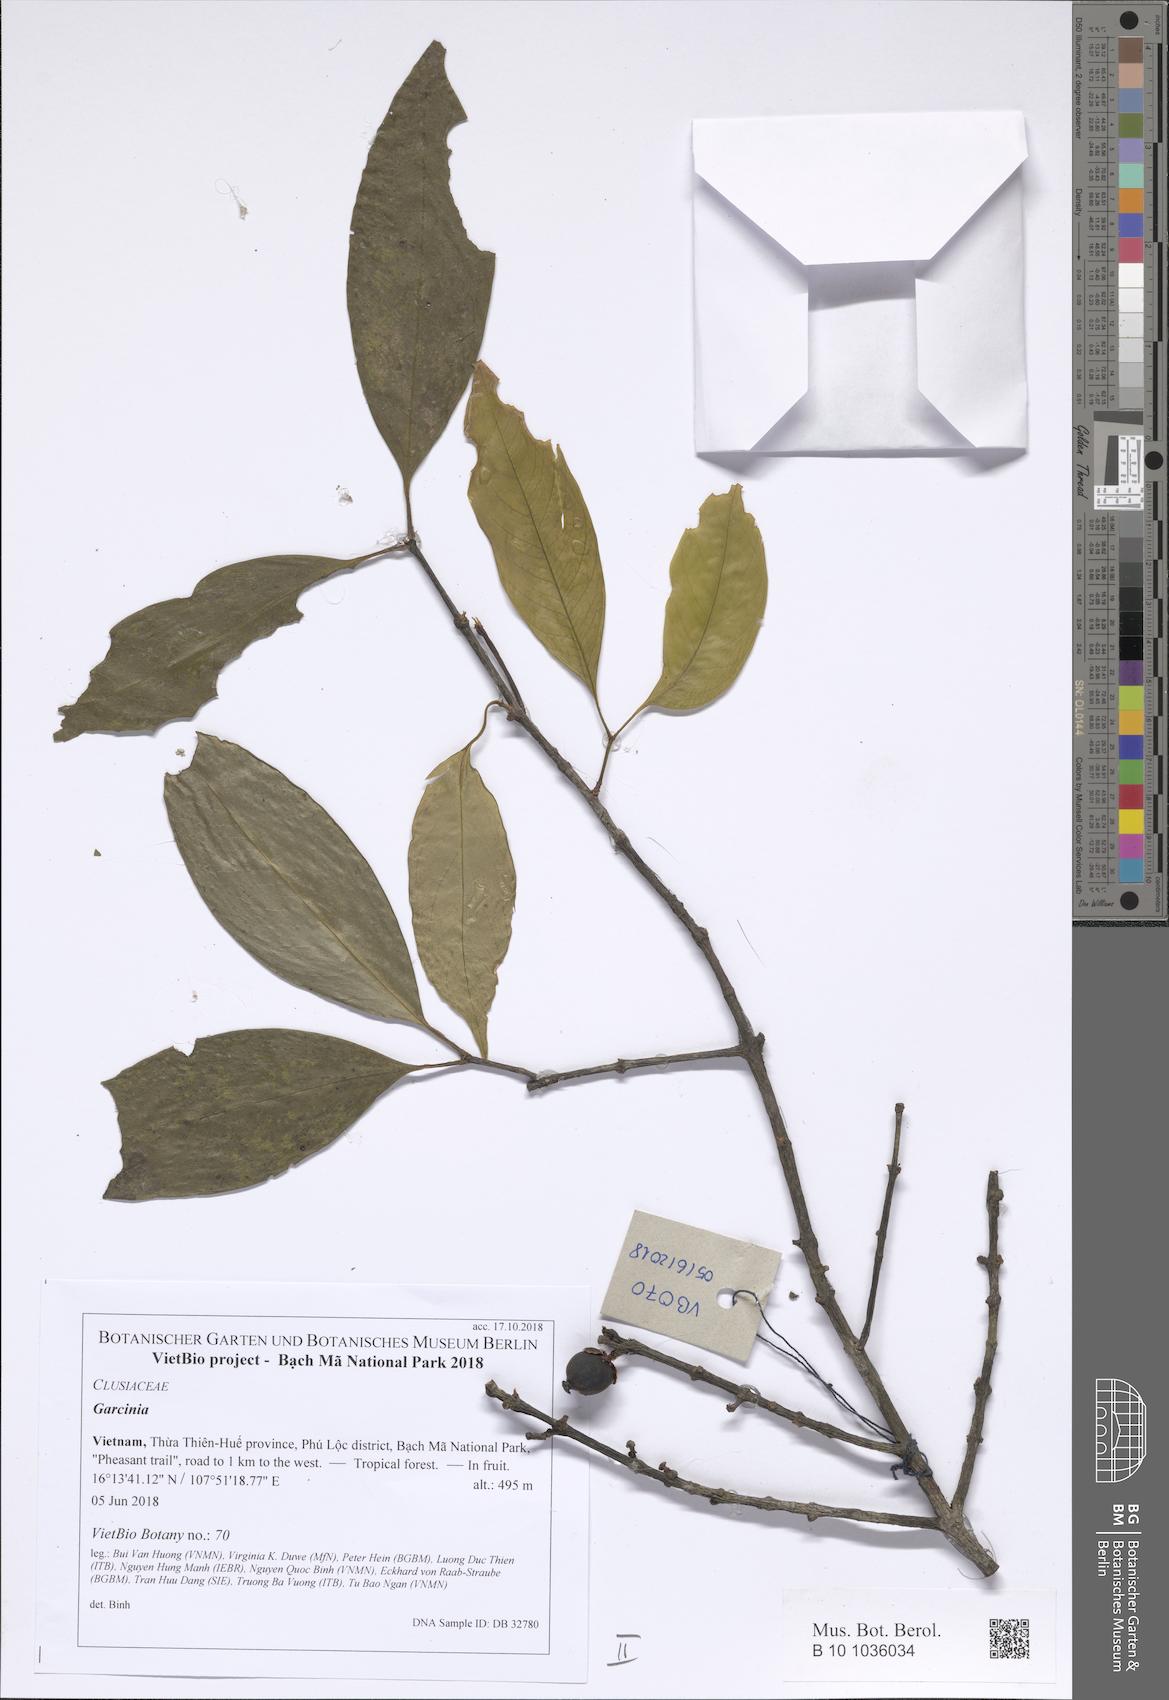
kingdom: Plantae
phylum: Tracheophyta
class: Magnoliopsida
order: Malpighiales
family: Clusiaceae
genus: Garcinia
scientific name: Garcinia merguensis
